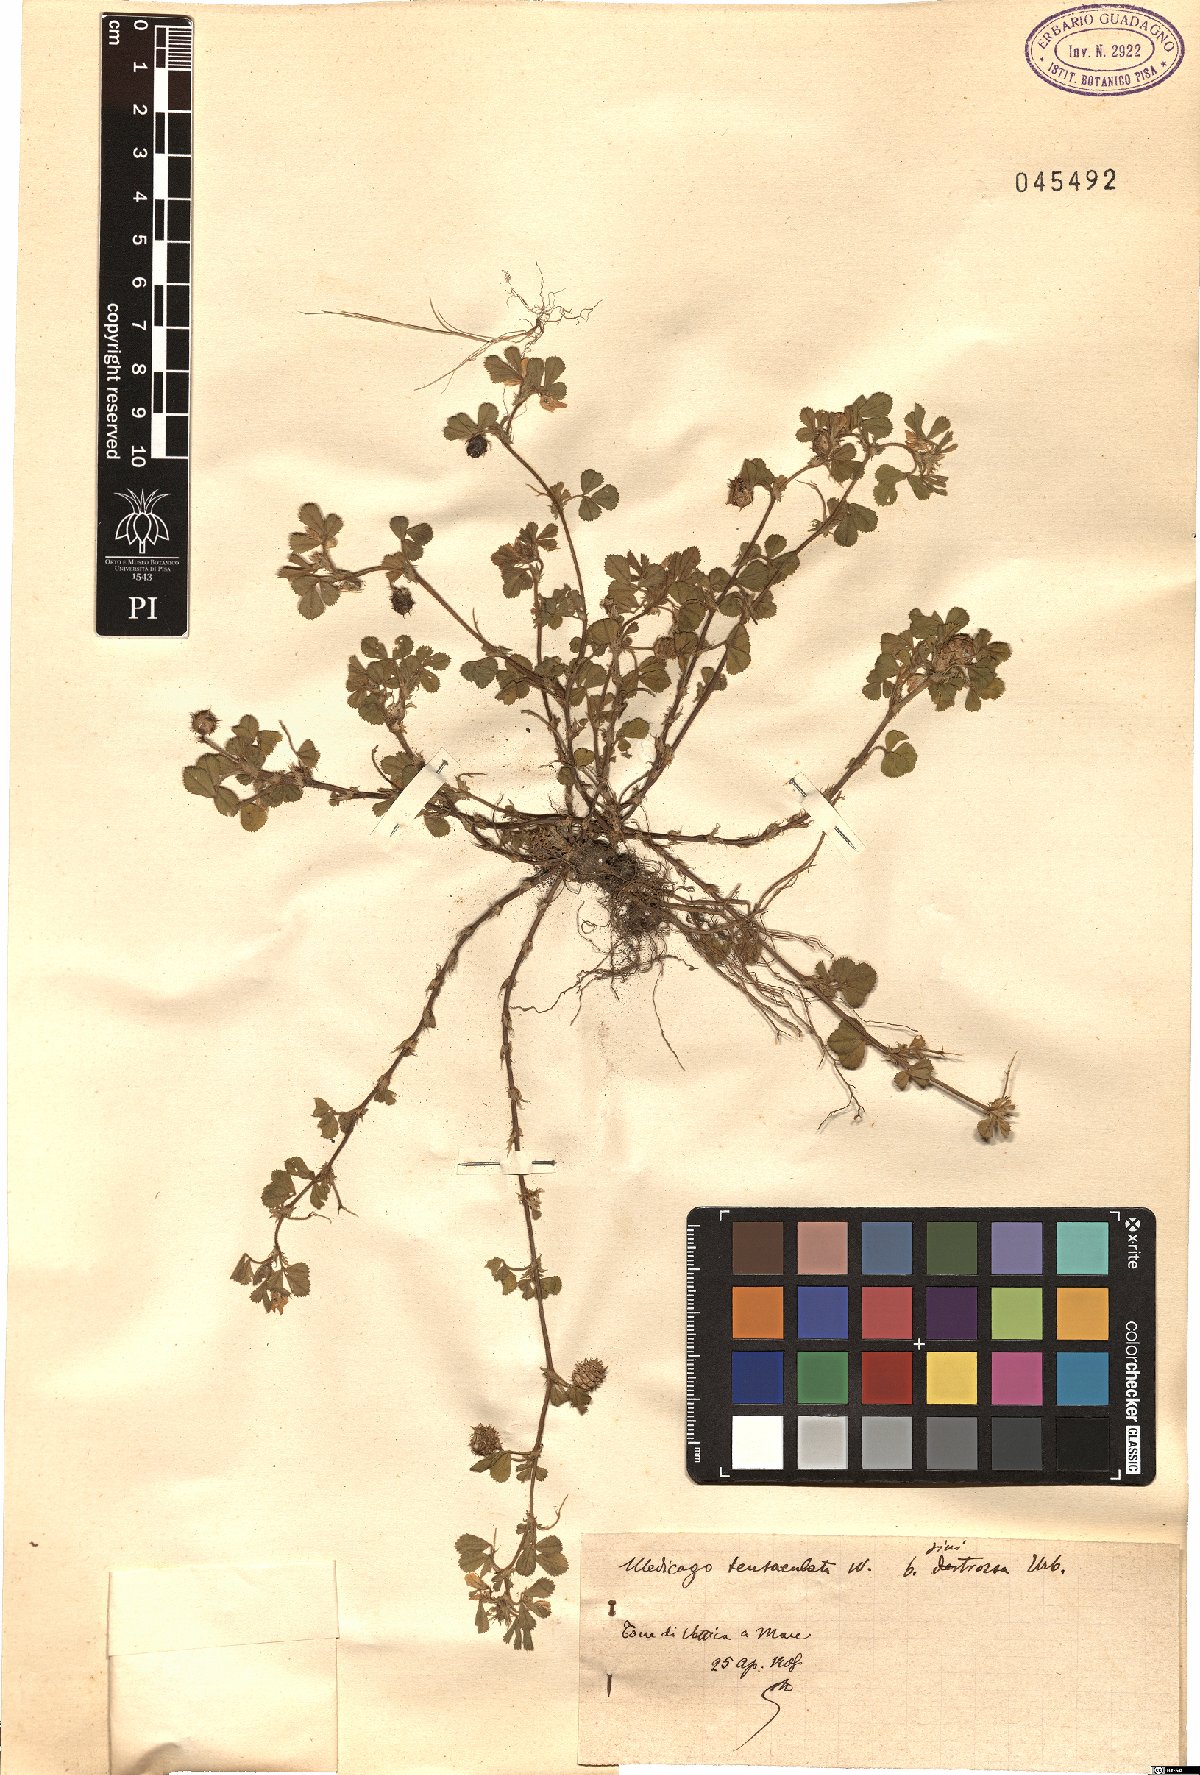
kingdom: Plantae
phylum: Tracheophyta
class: Magnoliopsida
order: Fabales
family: Fabaceae
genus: Medicago
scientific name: Medicago truncatula
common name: Strong-spined medick
